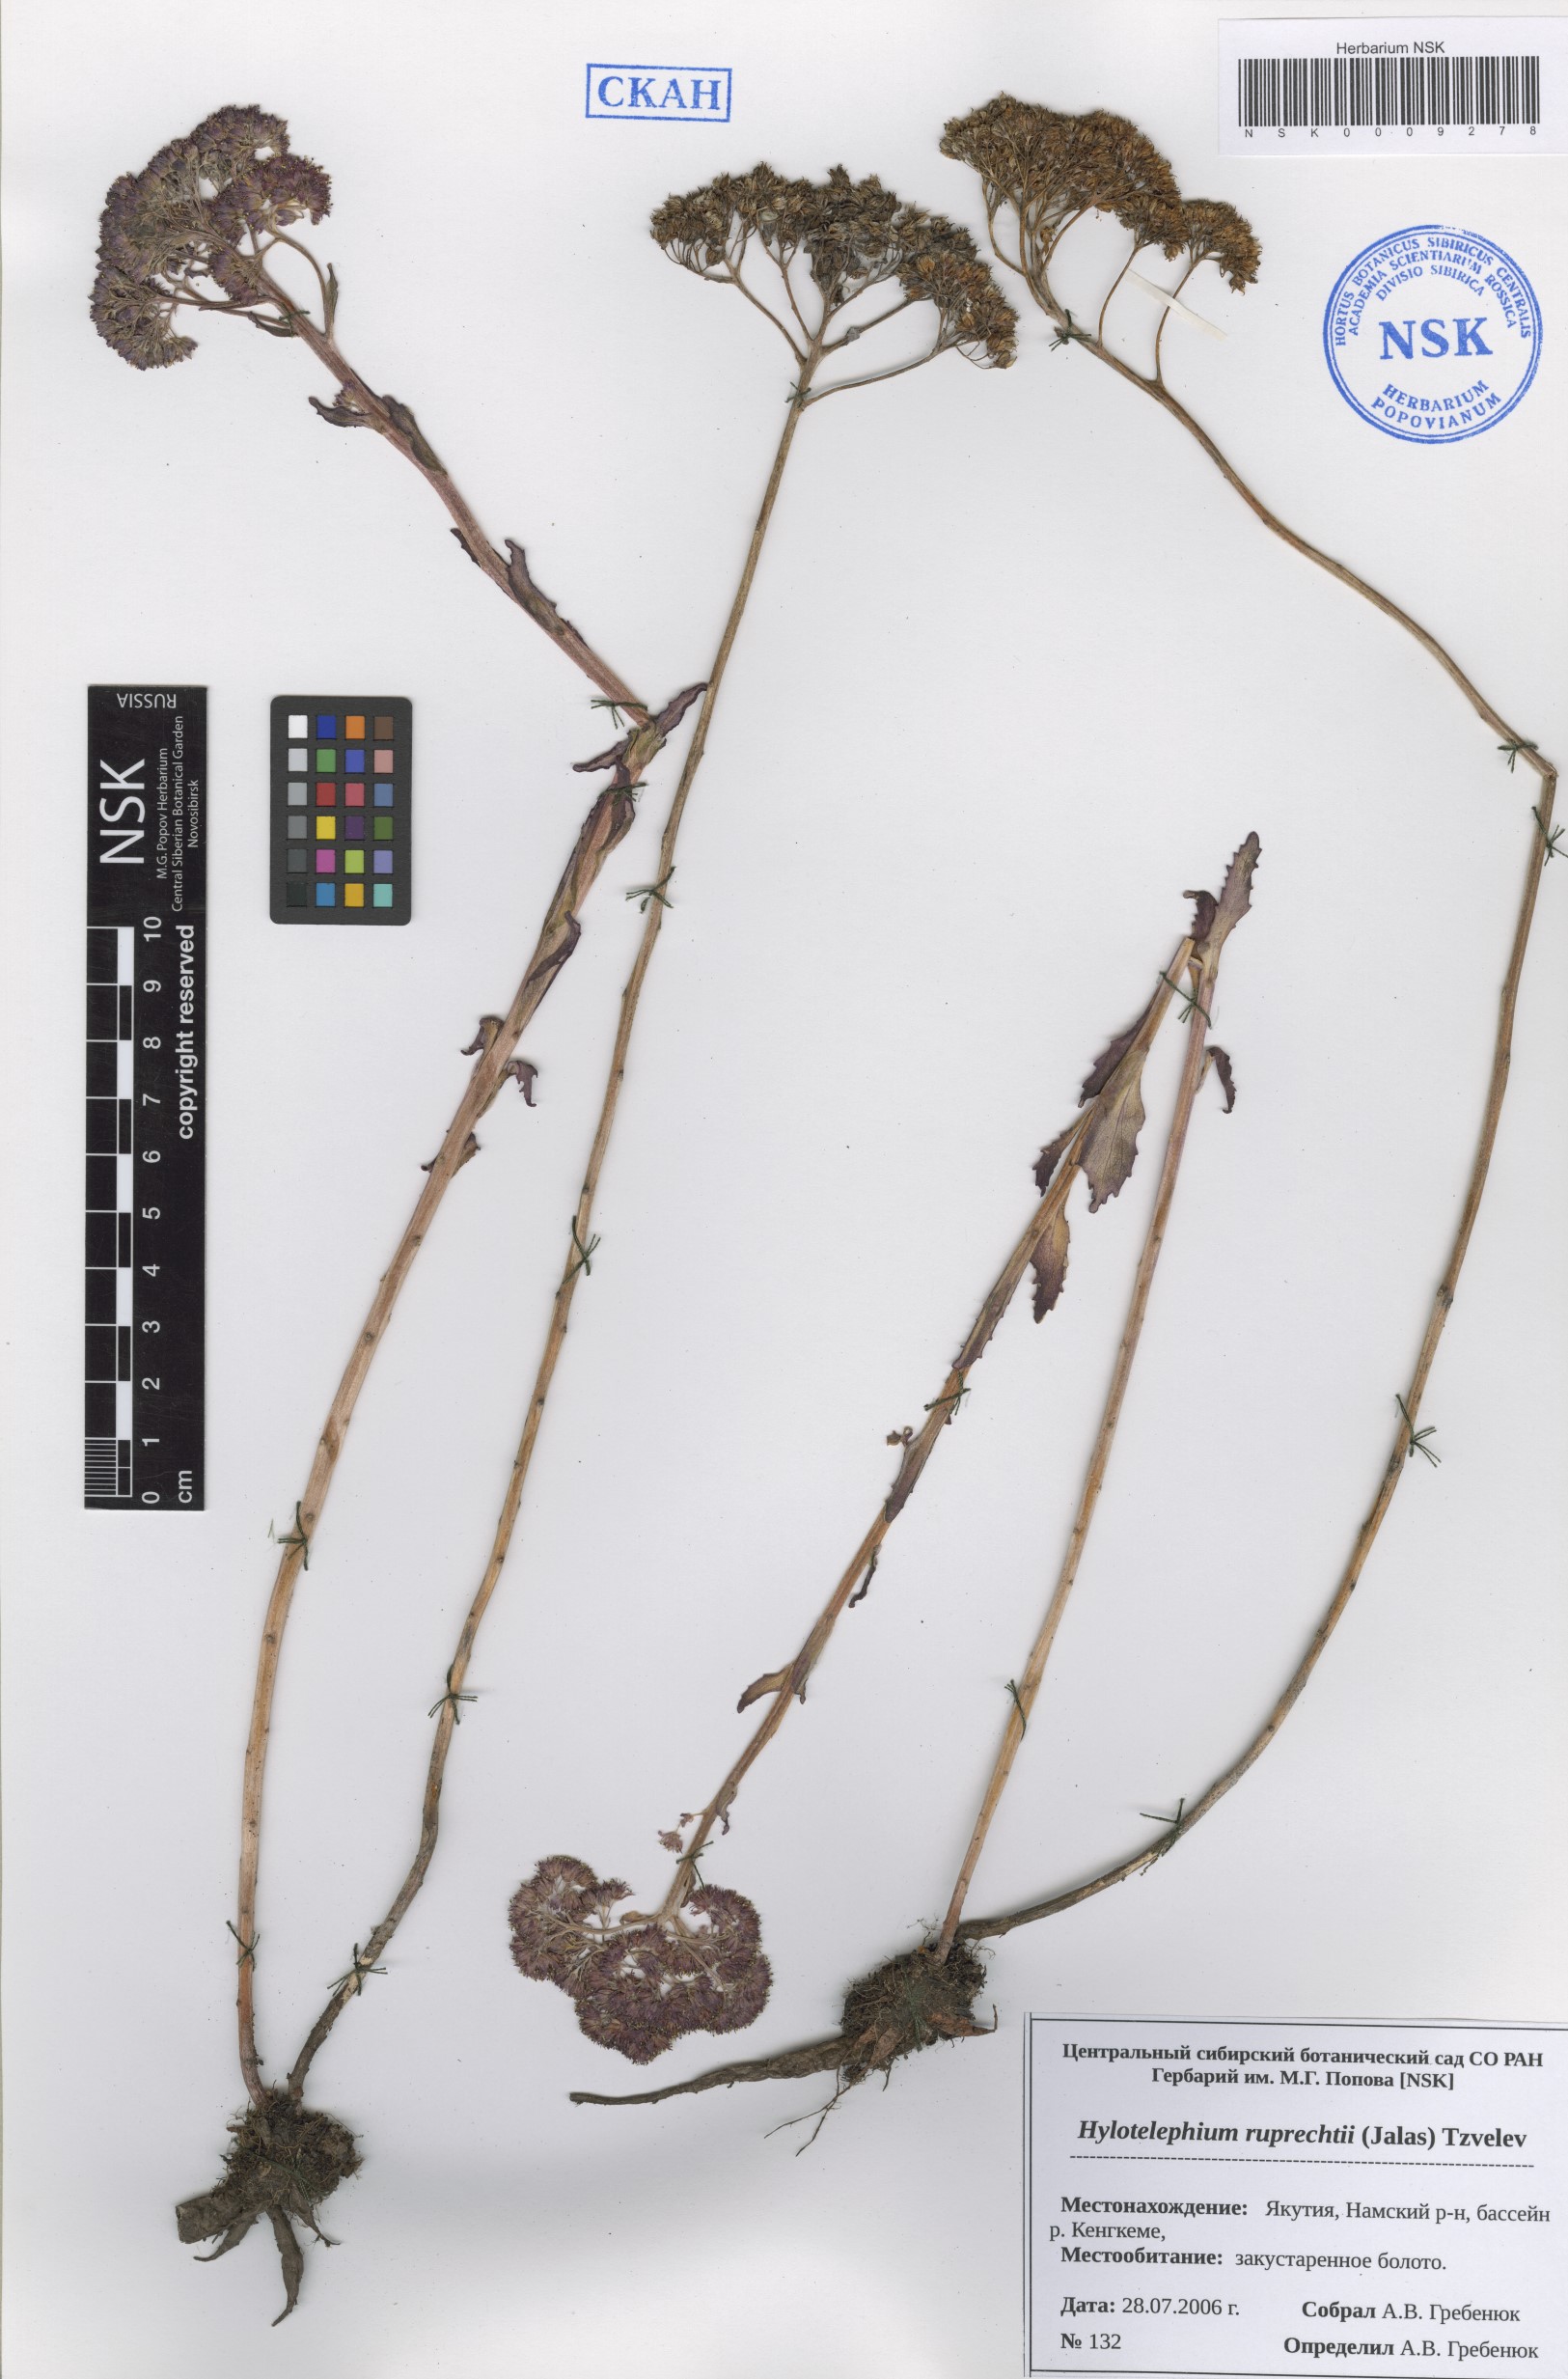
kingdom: Plantae
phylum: Tracheophyta
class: Magnoliopsida
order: Saxifragales
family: Crassulaceae
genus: Hylotelephium
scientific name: Hylotelephium maximum
